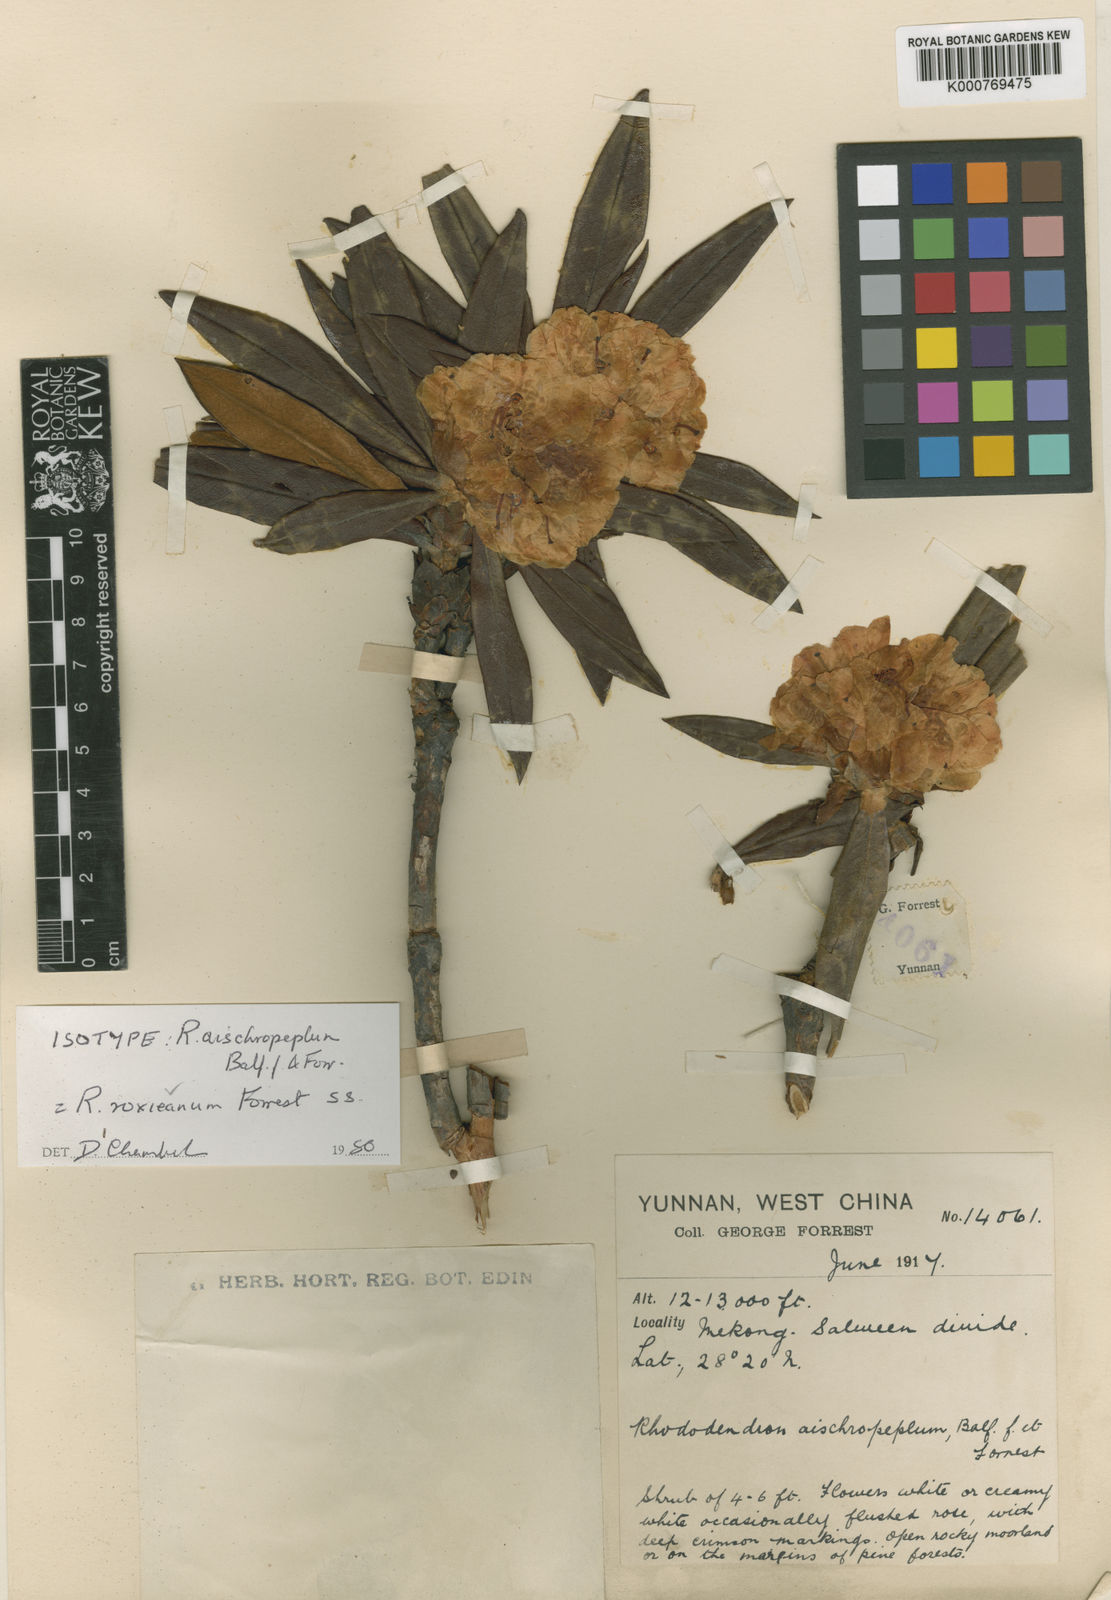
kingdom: Plantae
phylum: Tracheophyta
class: Magnoliopsida
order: Ericales
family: Ericaceae
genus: Rhododendron
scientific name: Rhododendron roxieanum
